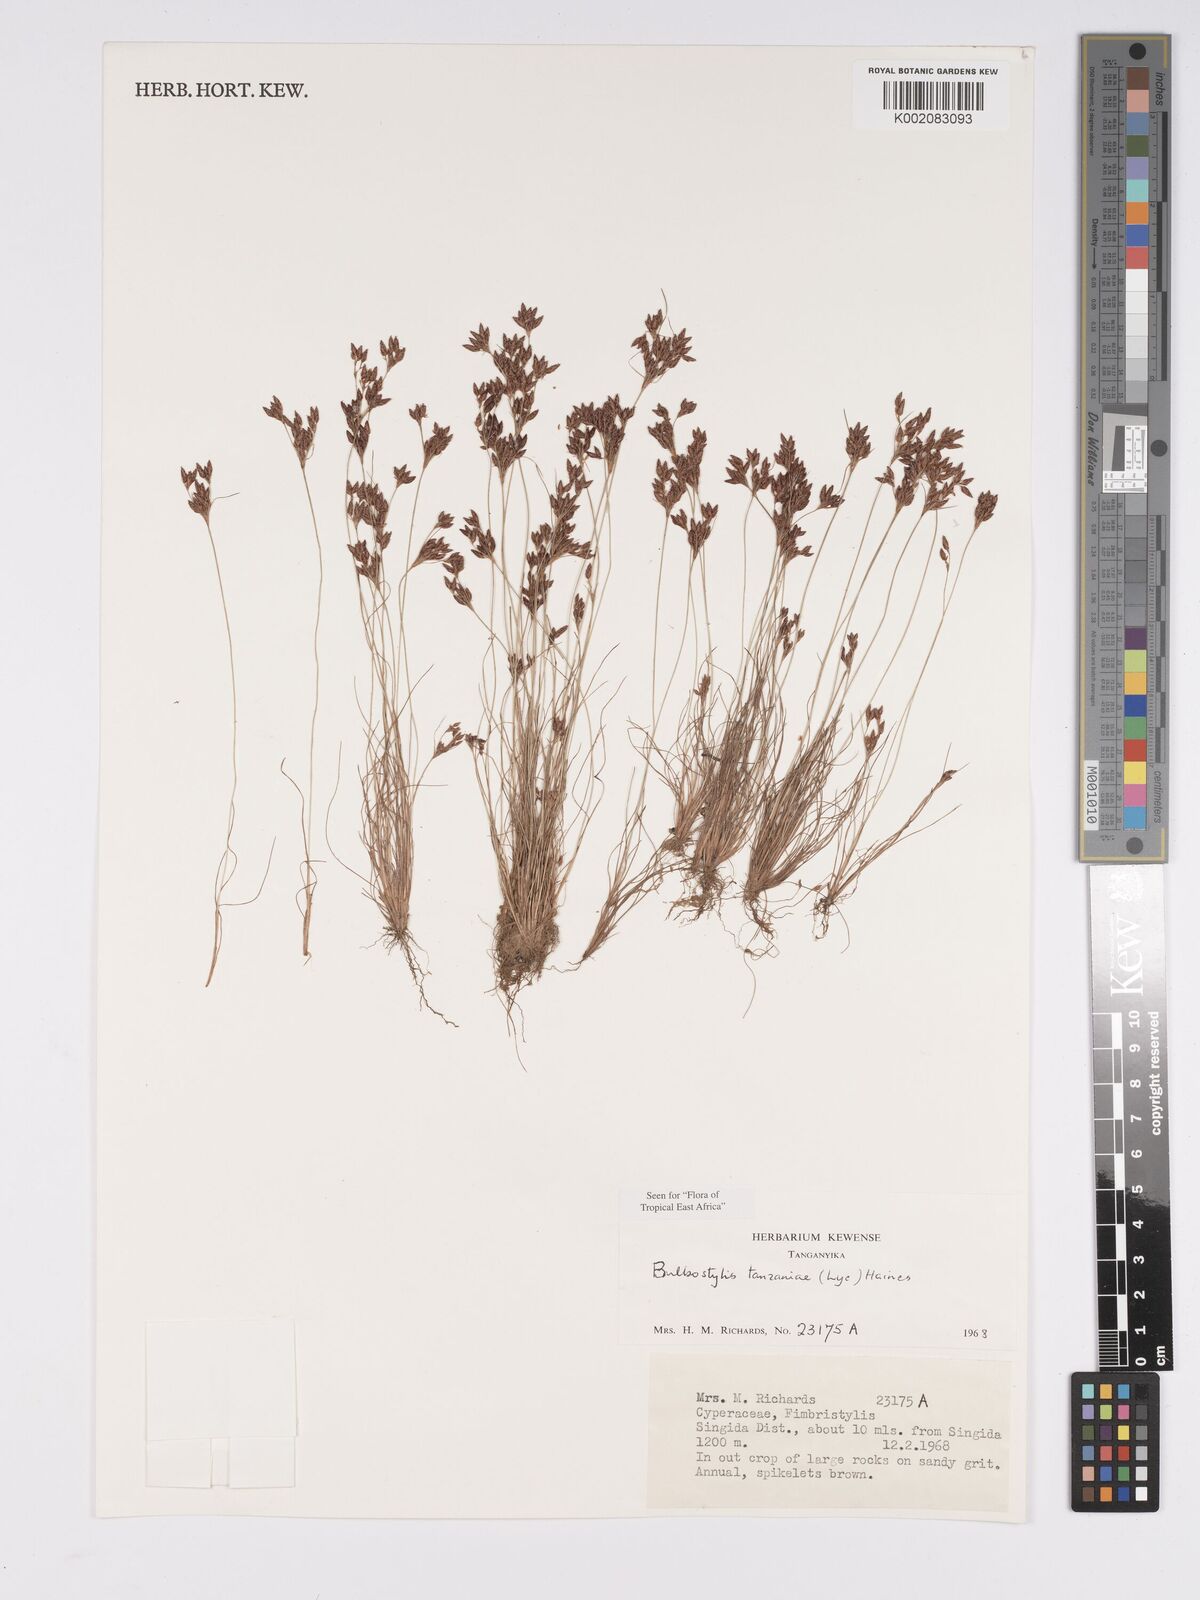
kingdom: Plantae
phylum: Tracheophyta
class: Liliopsida
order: Poales
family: Cyperaceae
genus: Bulbostylis
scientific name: Bulbostylis tanzaniae
